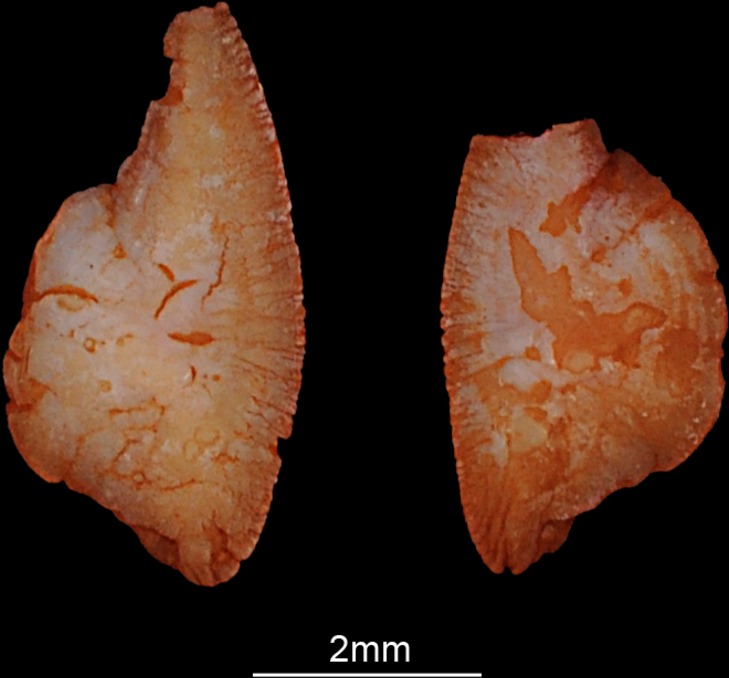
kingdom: Animalia
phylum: Chordata
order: Salmoniformes
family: Salmonidae
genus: Oncorhynchus
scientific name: Oncorhynchus mykiss
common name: Rainbow trout
